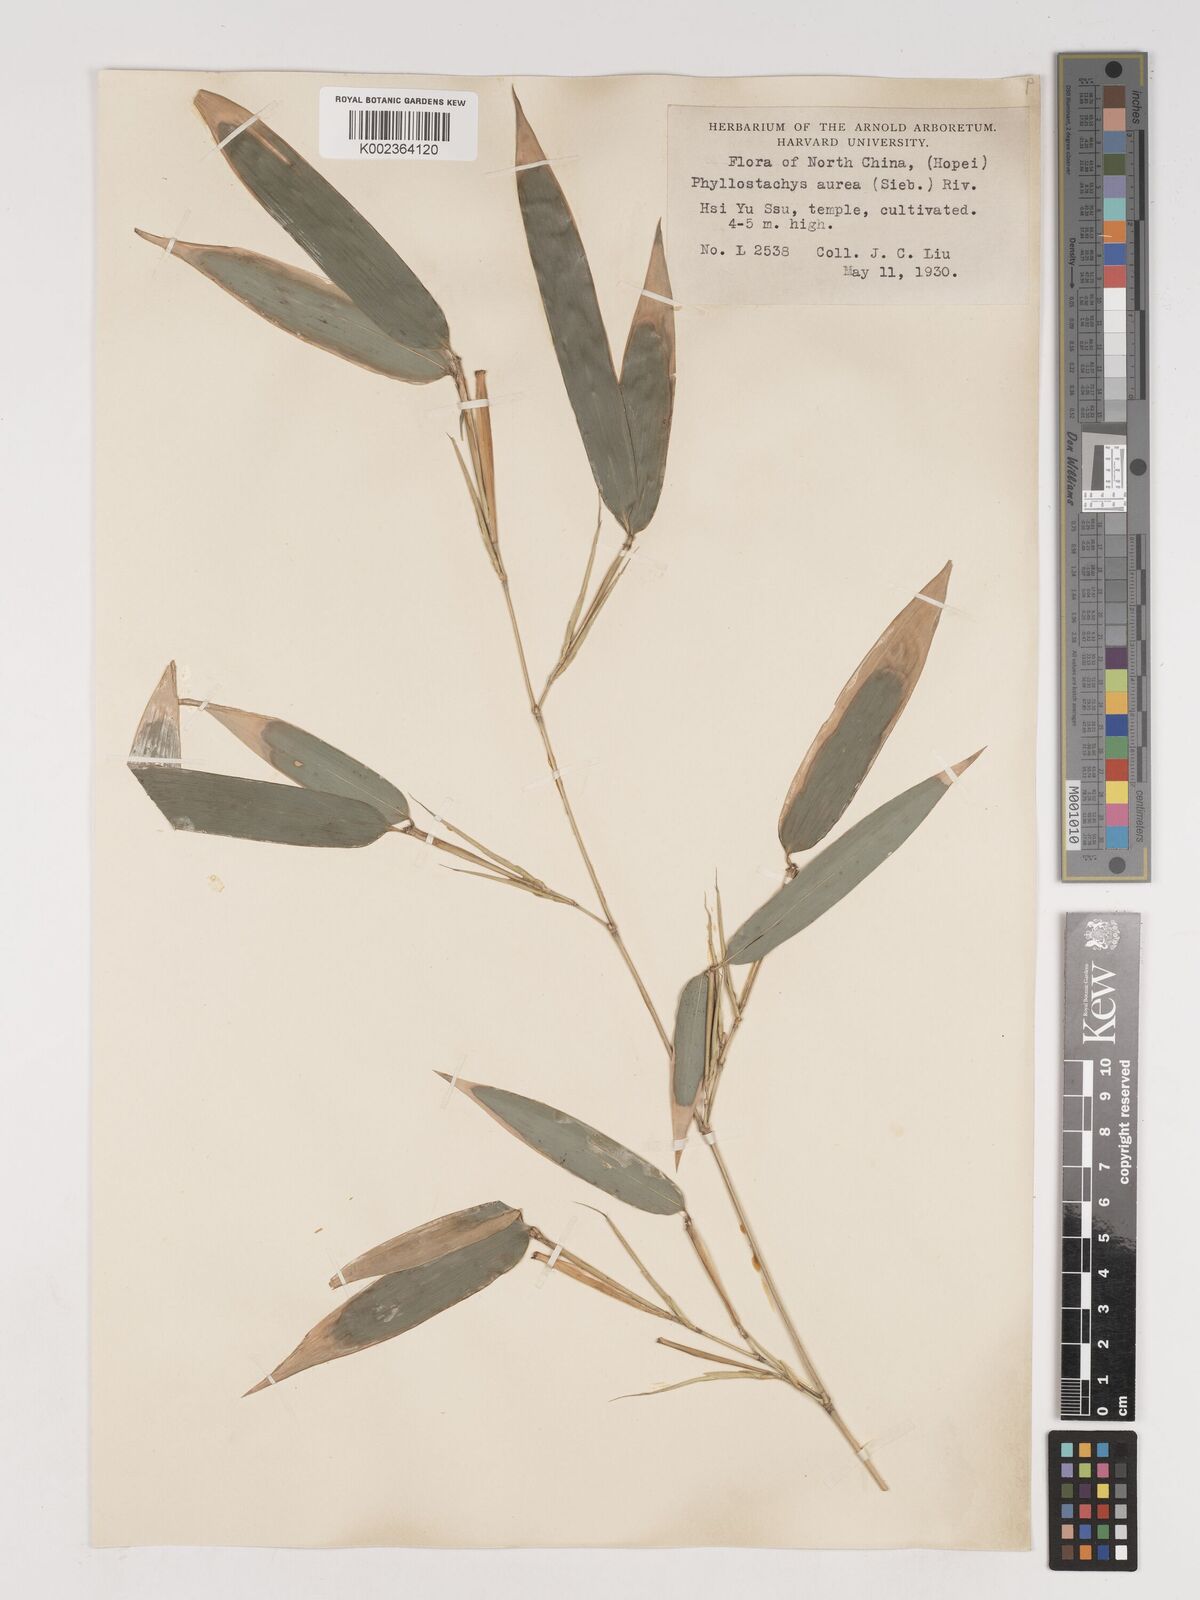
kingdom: Plantae
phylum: Tracheophyta
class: Liliopsida
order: Poales
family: Poaceae
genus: Phyllostachys
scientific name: Phyllostachys aurea
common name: Golden bamboo
